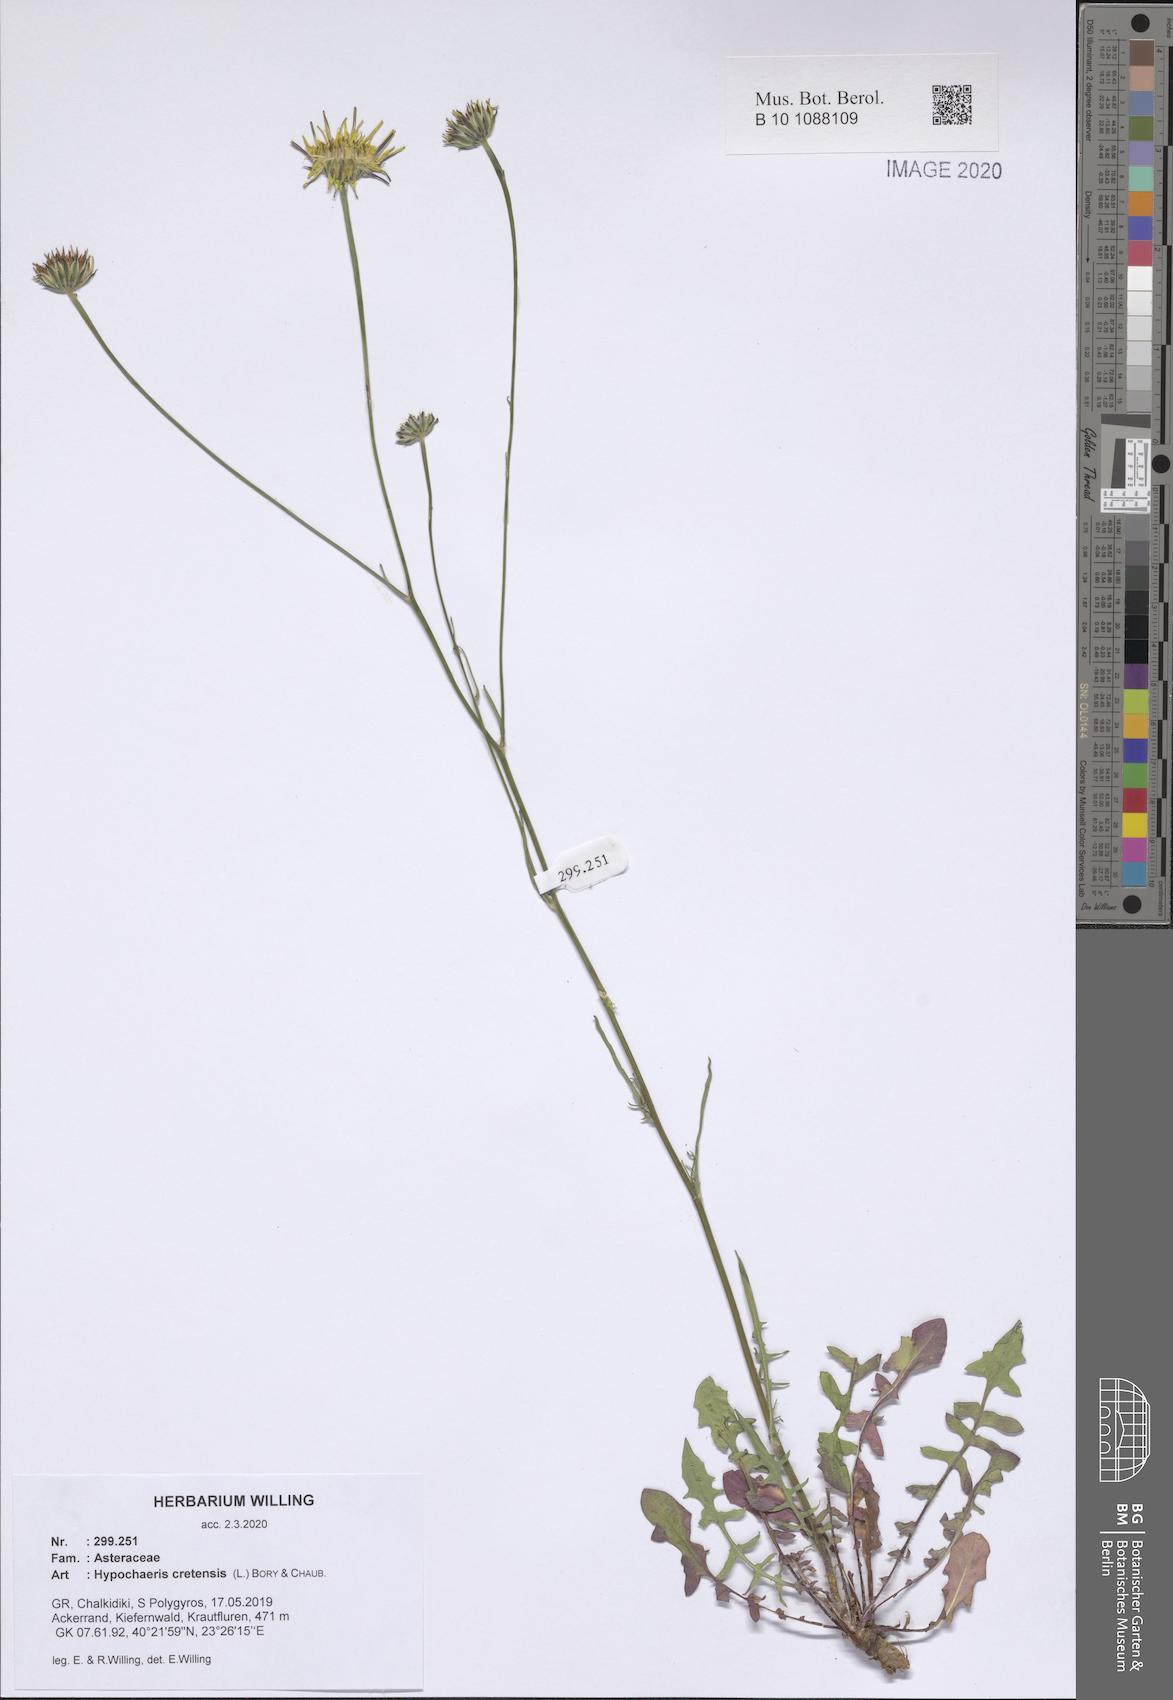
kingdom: Plantae
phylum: Tracheophyta
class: Magnoliopsida
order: Asterales
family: Asteraceae
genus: Hypochaeris
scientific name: Hypochaeris cretensis
